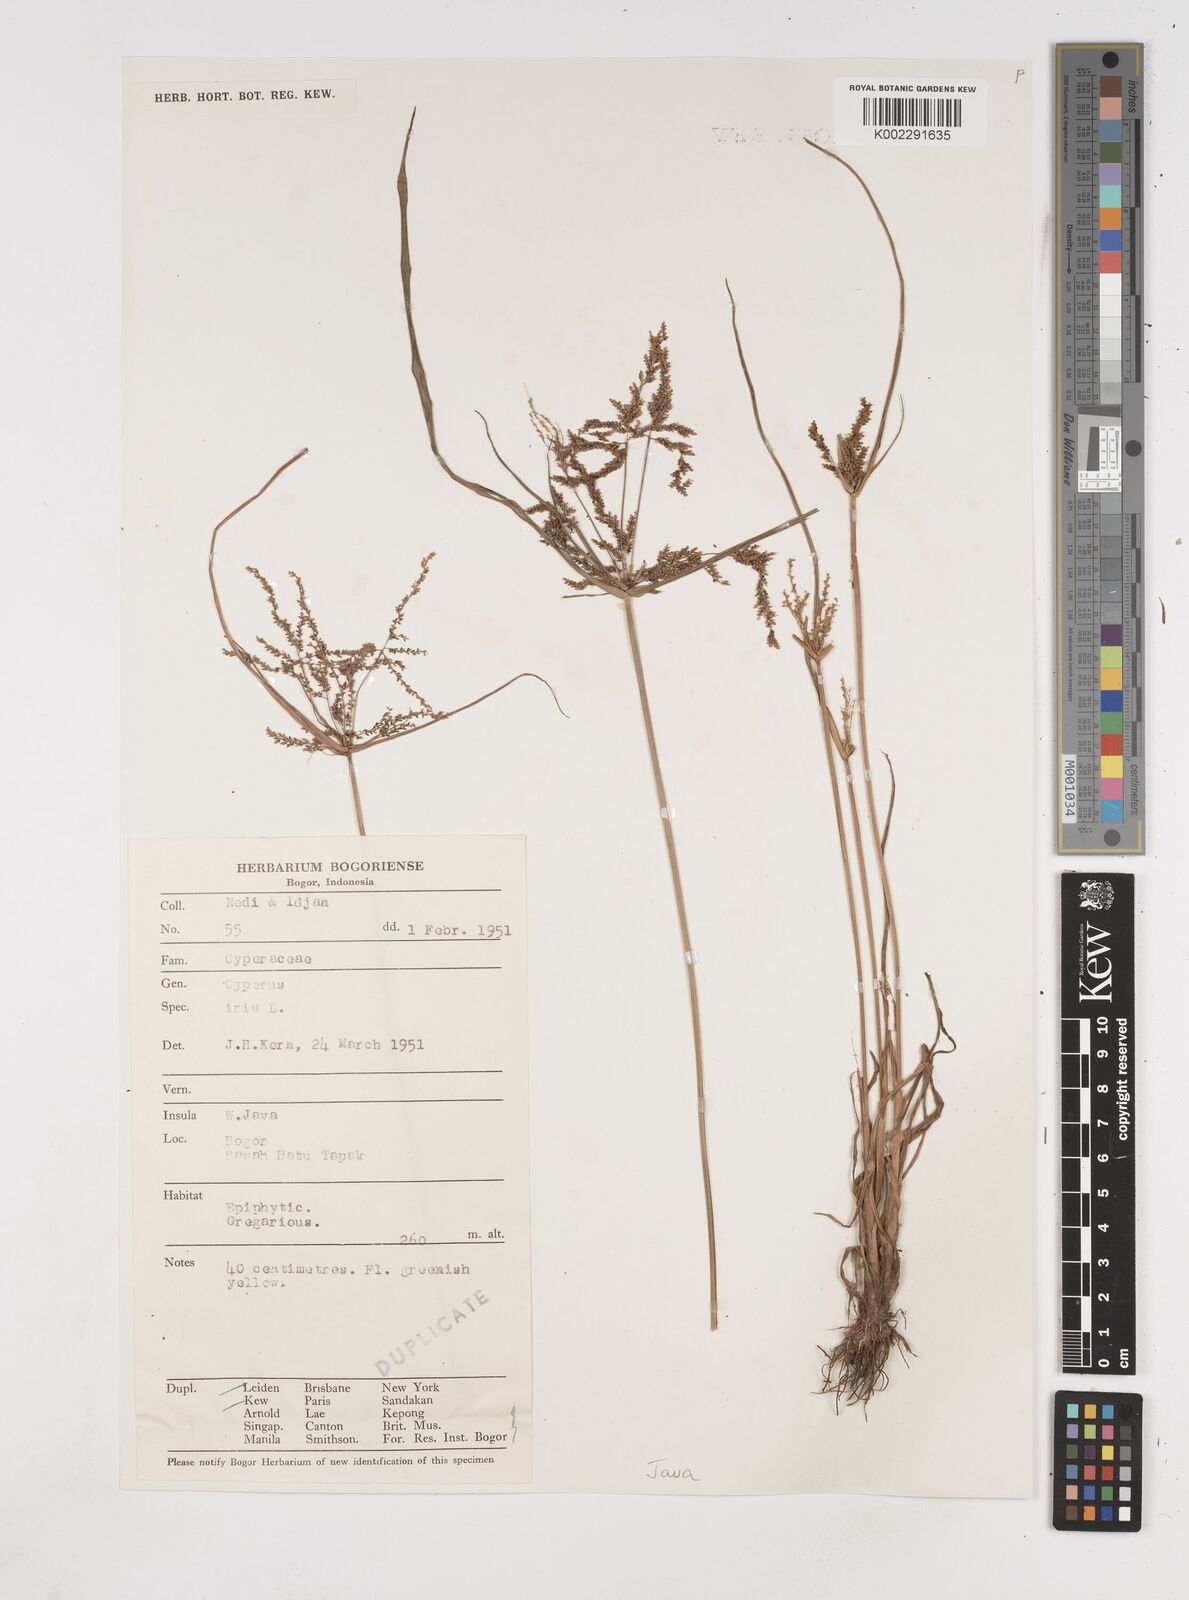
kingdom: Plantae
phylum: Tracheophyta
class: Liliopsida
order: Poales
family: Cyperaceae
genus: Cyperus
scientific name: Cyperus iria
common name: Ricefield flatsedge
